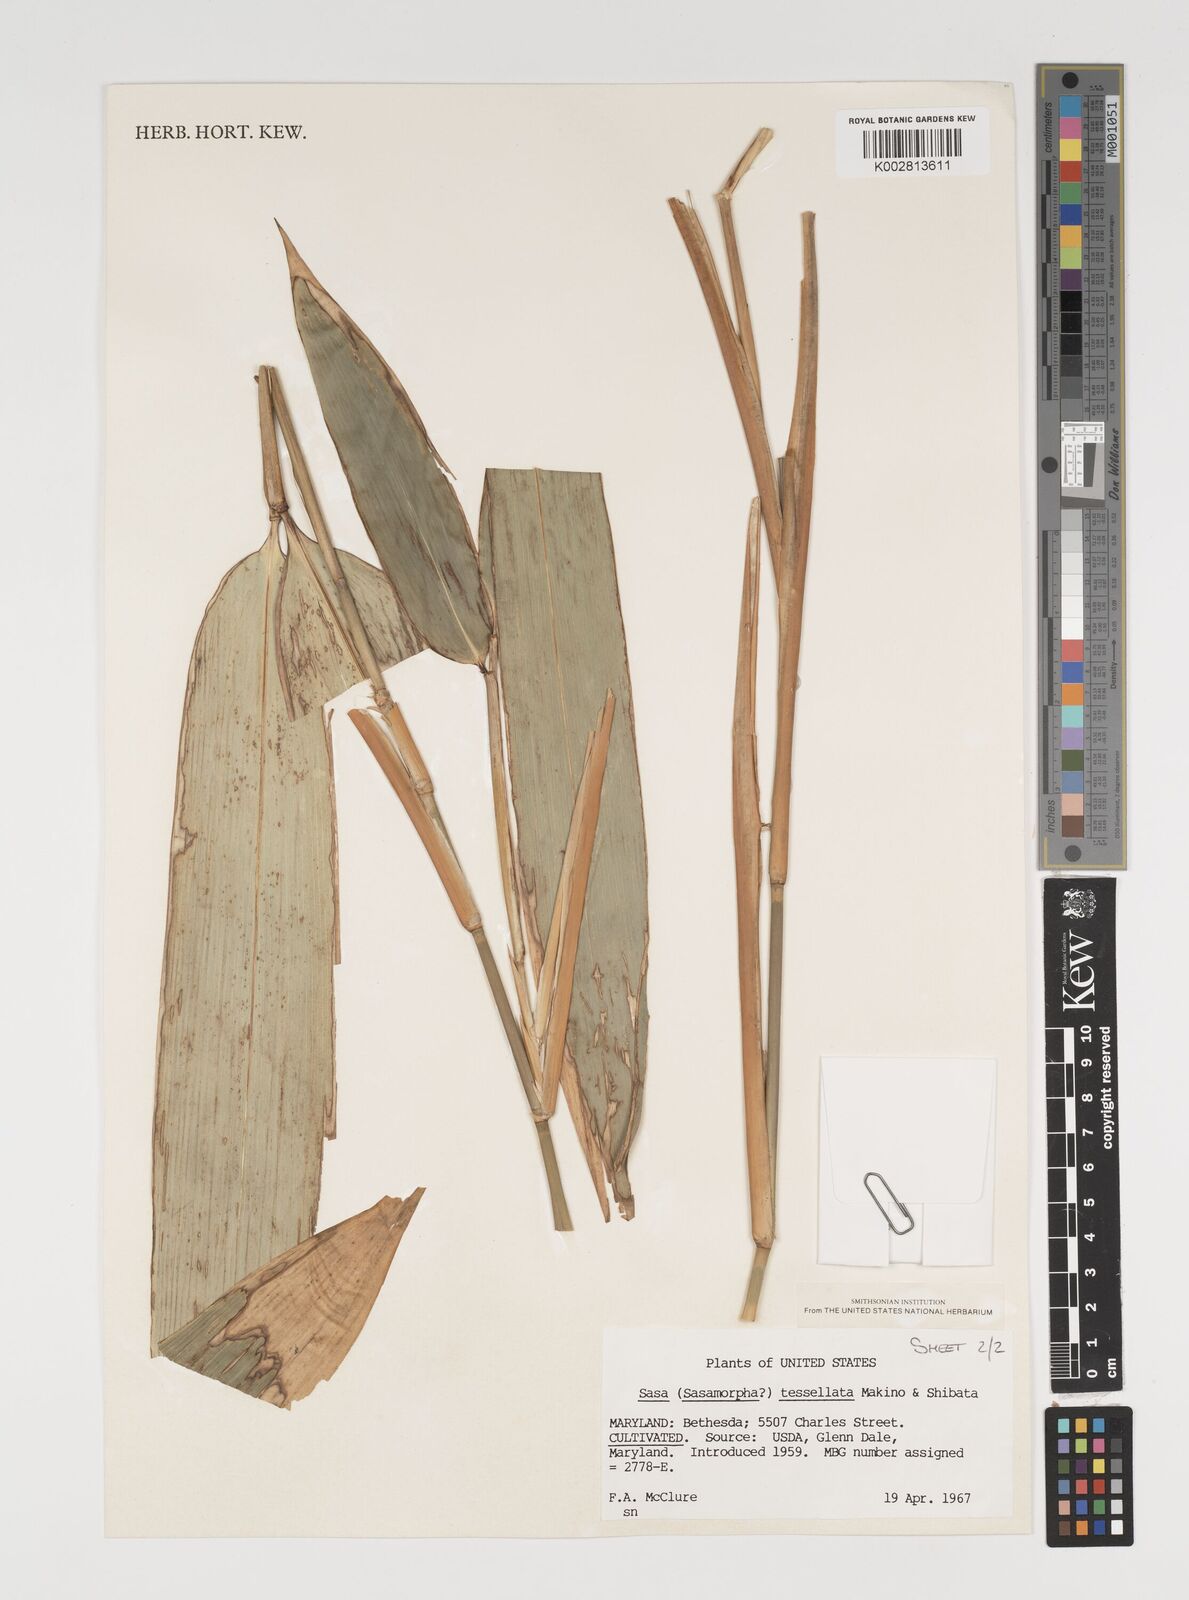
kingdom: Plantae
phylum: Tracheophyta
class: Liliopsida
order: Poales
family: Poaceae
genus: Indocalamus
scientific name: Indocalamus tessellatus
